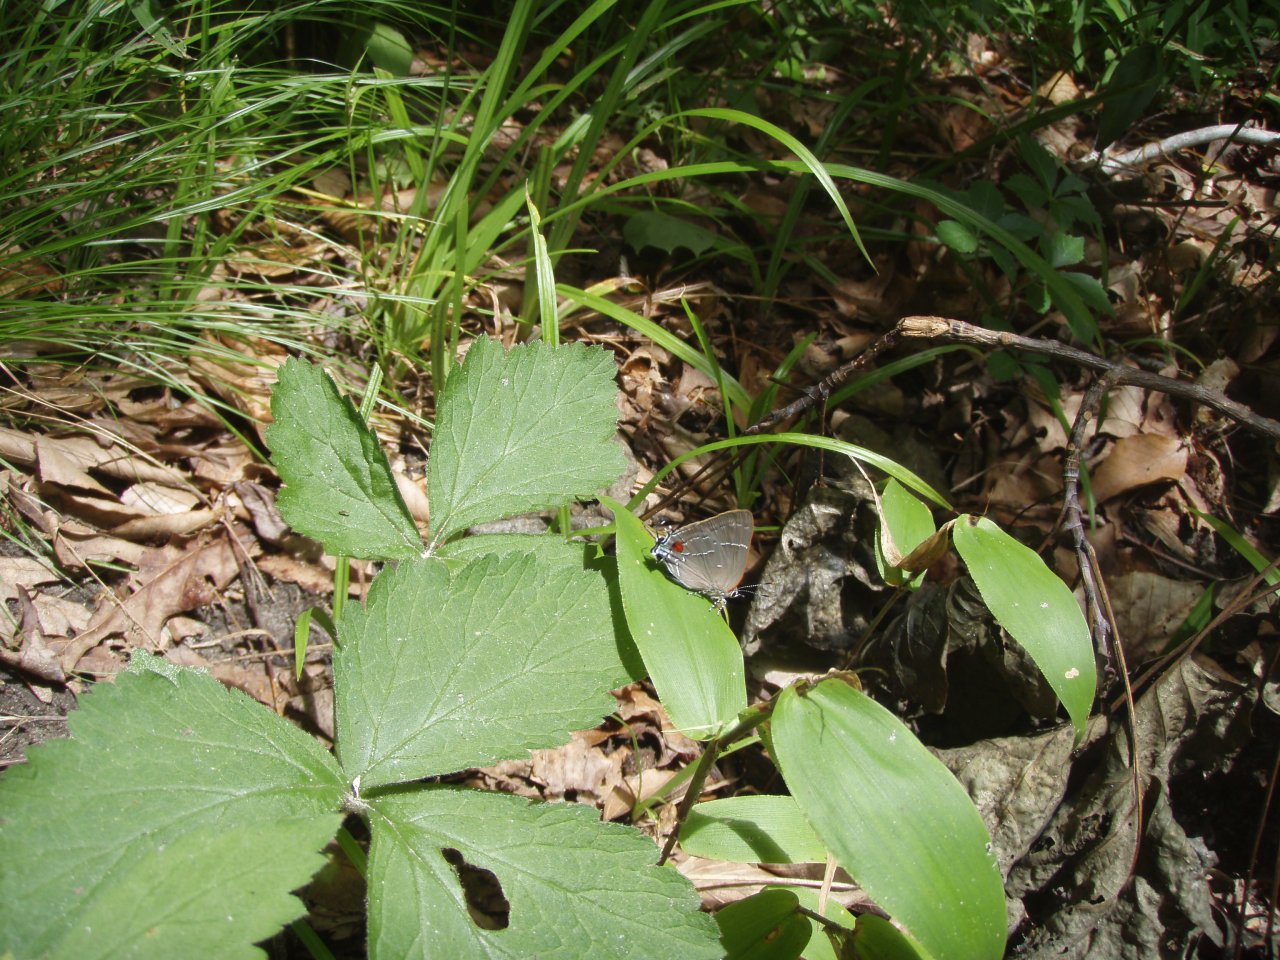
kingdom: Animalia
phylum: Arthropoda
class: Insecta
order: Lepidoptera
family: Lycaenidae
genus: Parrhasius
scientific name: Parrhasius m-album
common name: White-m Hairstreak
